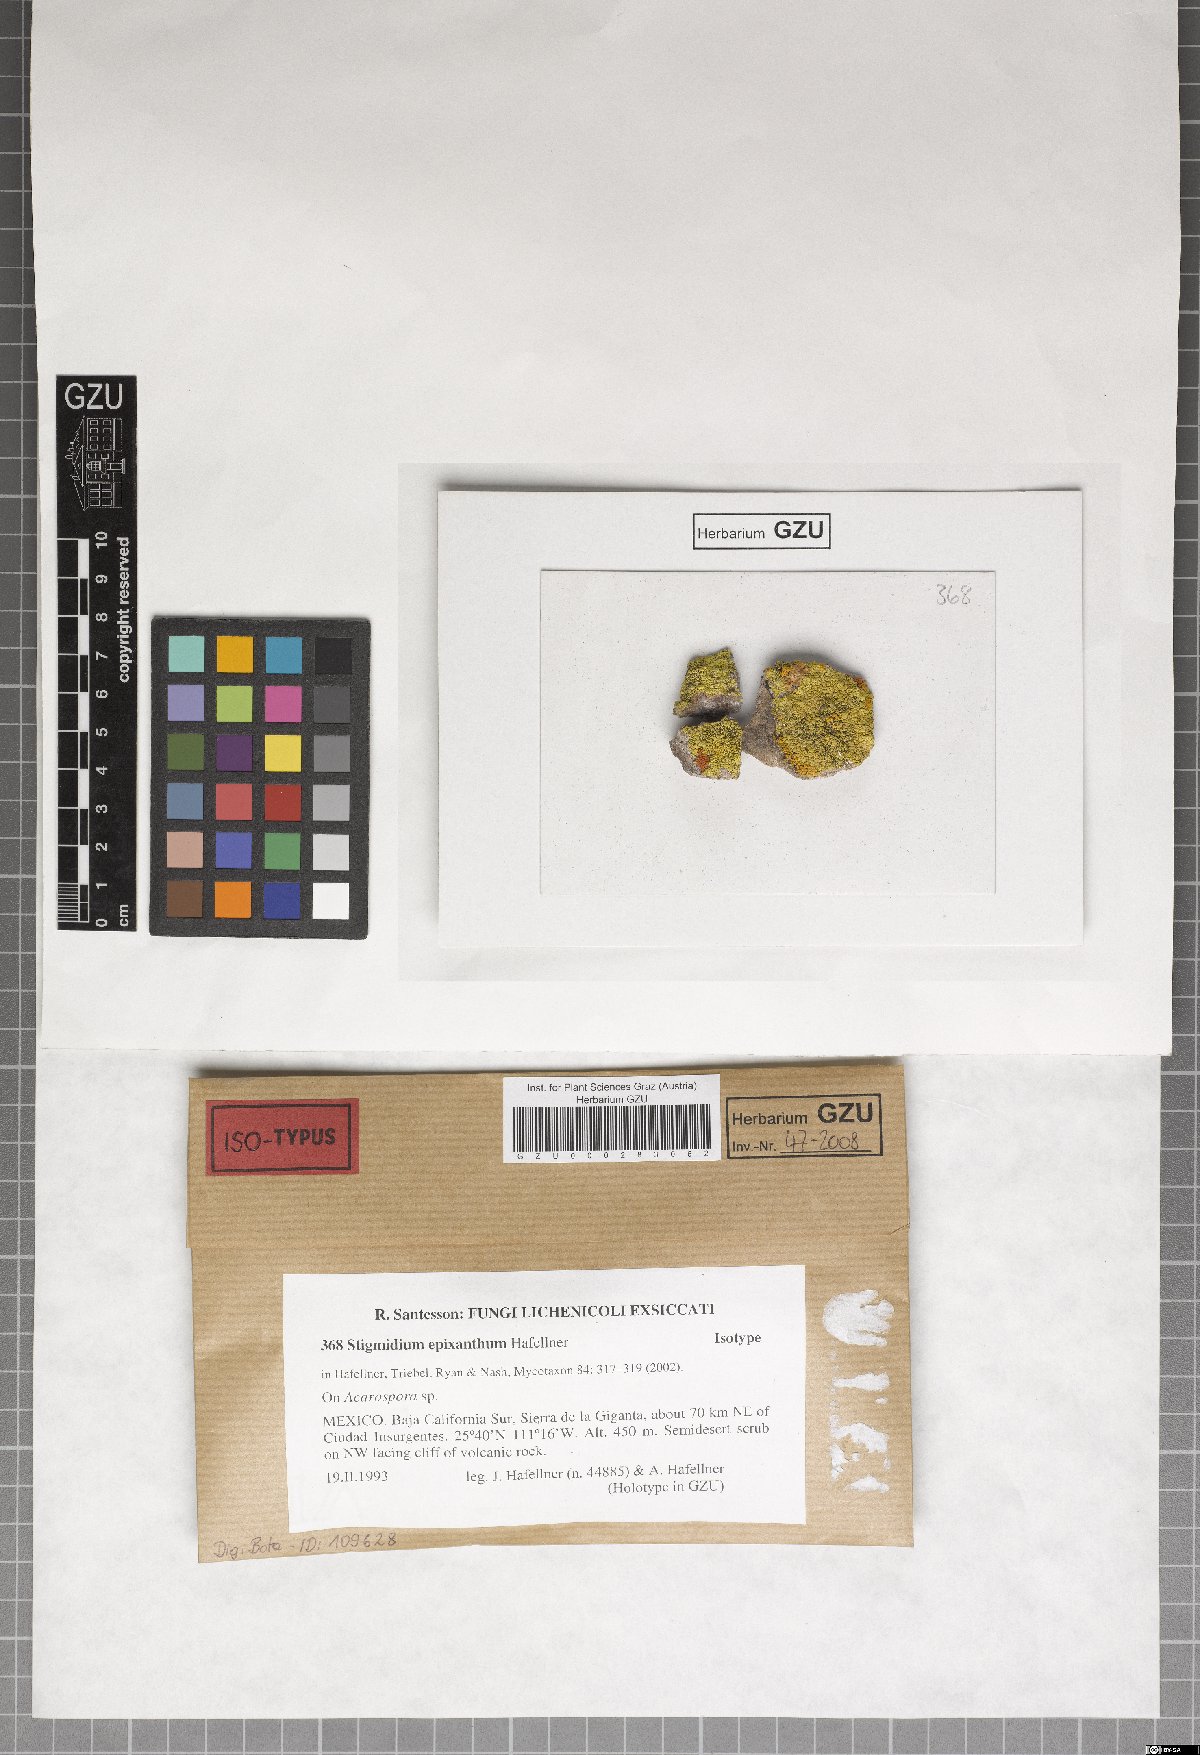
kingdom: Fungi
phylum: Ascomycota
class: Dothideomycetes
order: Mycosphaerellales
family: Mycosphaerellaceae
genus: Stigmidium
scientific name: Stigmidium epixanthum
